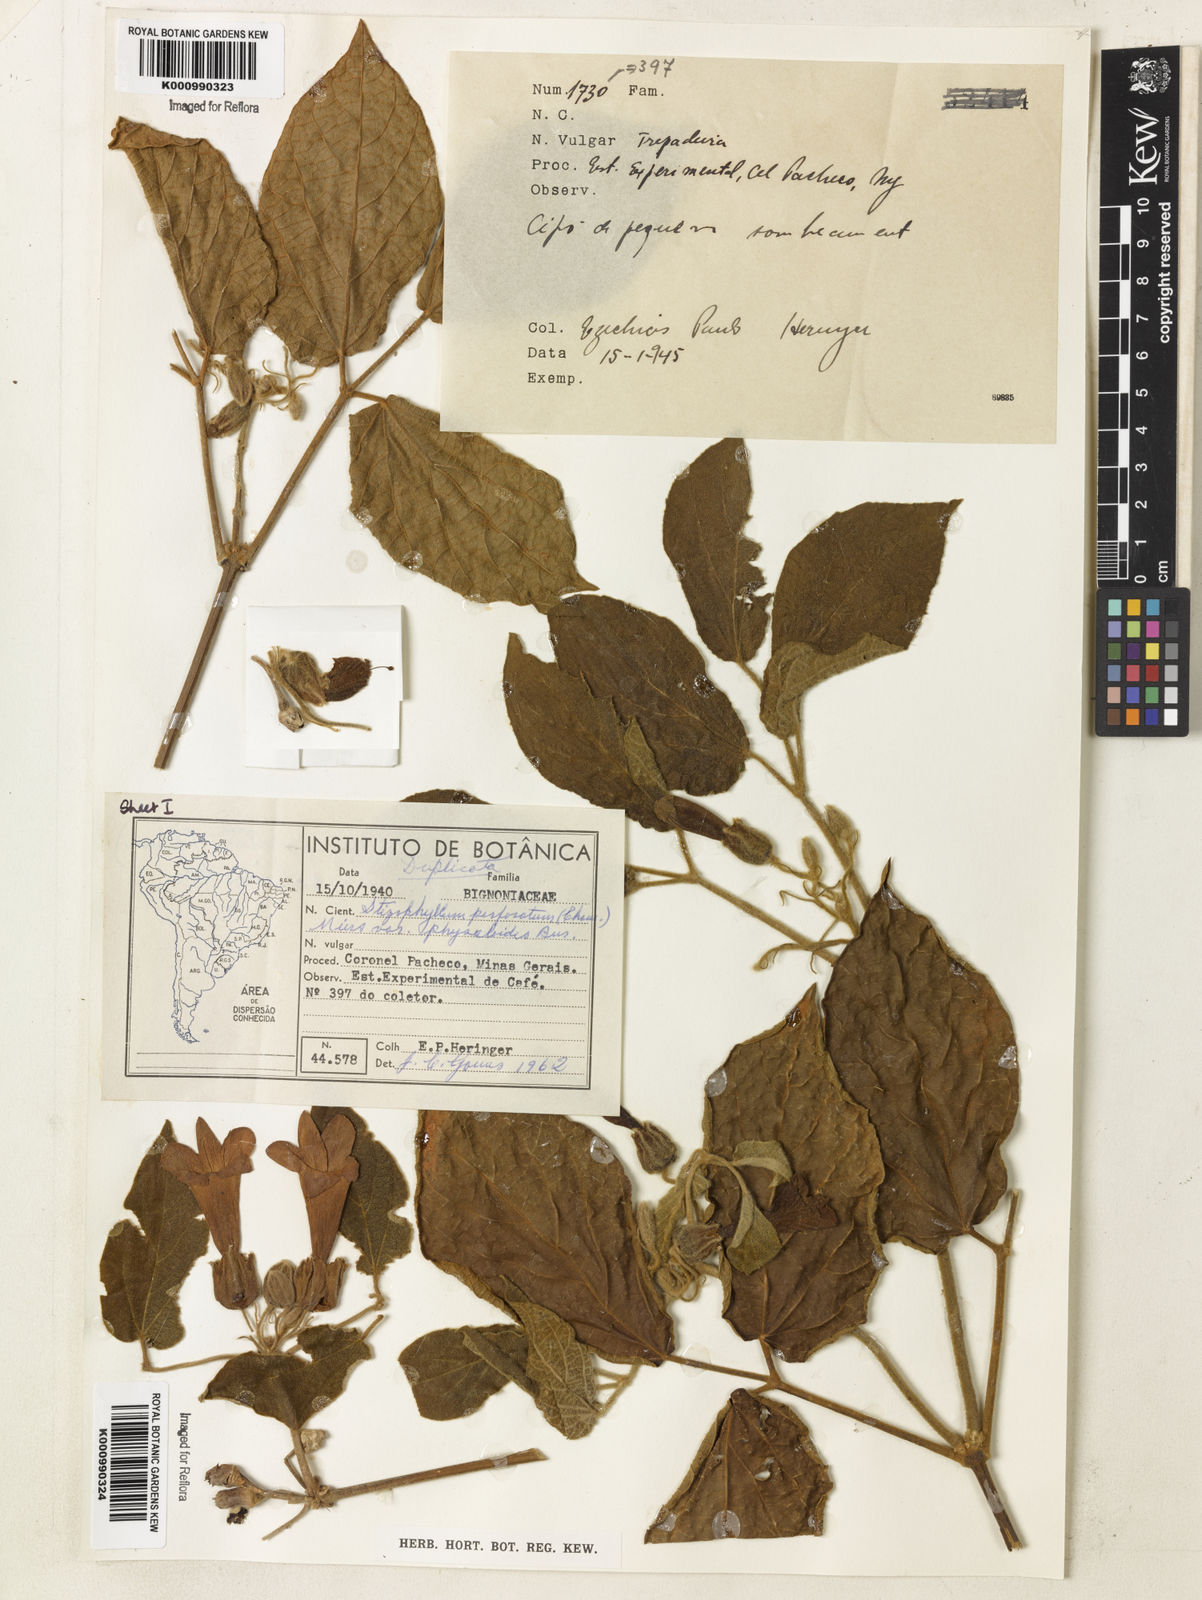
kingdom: Plantae
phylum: Tracheophyta
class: Magnoliopsida
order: Lamiales
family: Bignoniaceae
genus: Stizophyllum
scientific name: Stizophyllum perforatum
